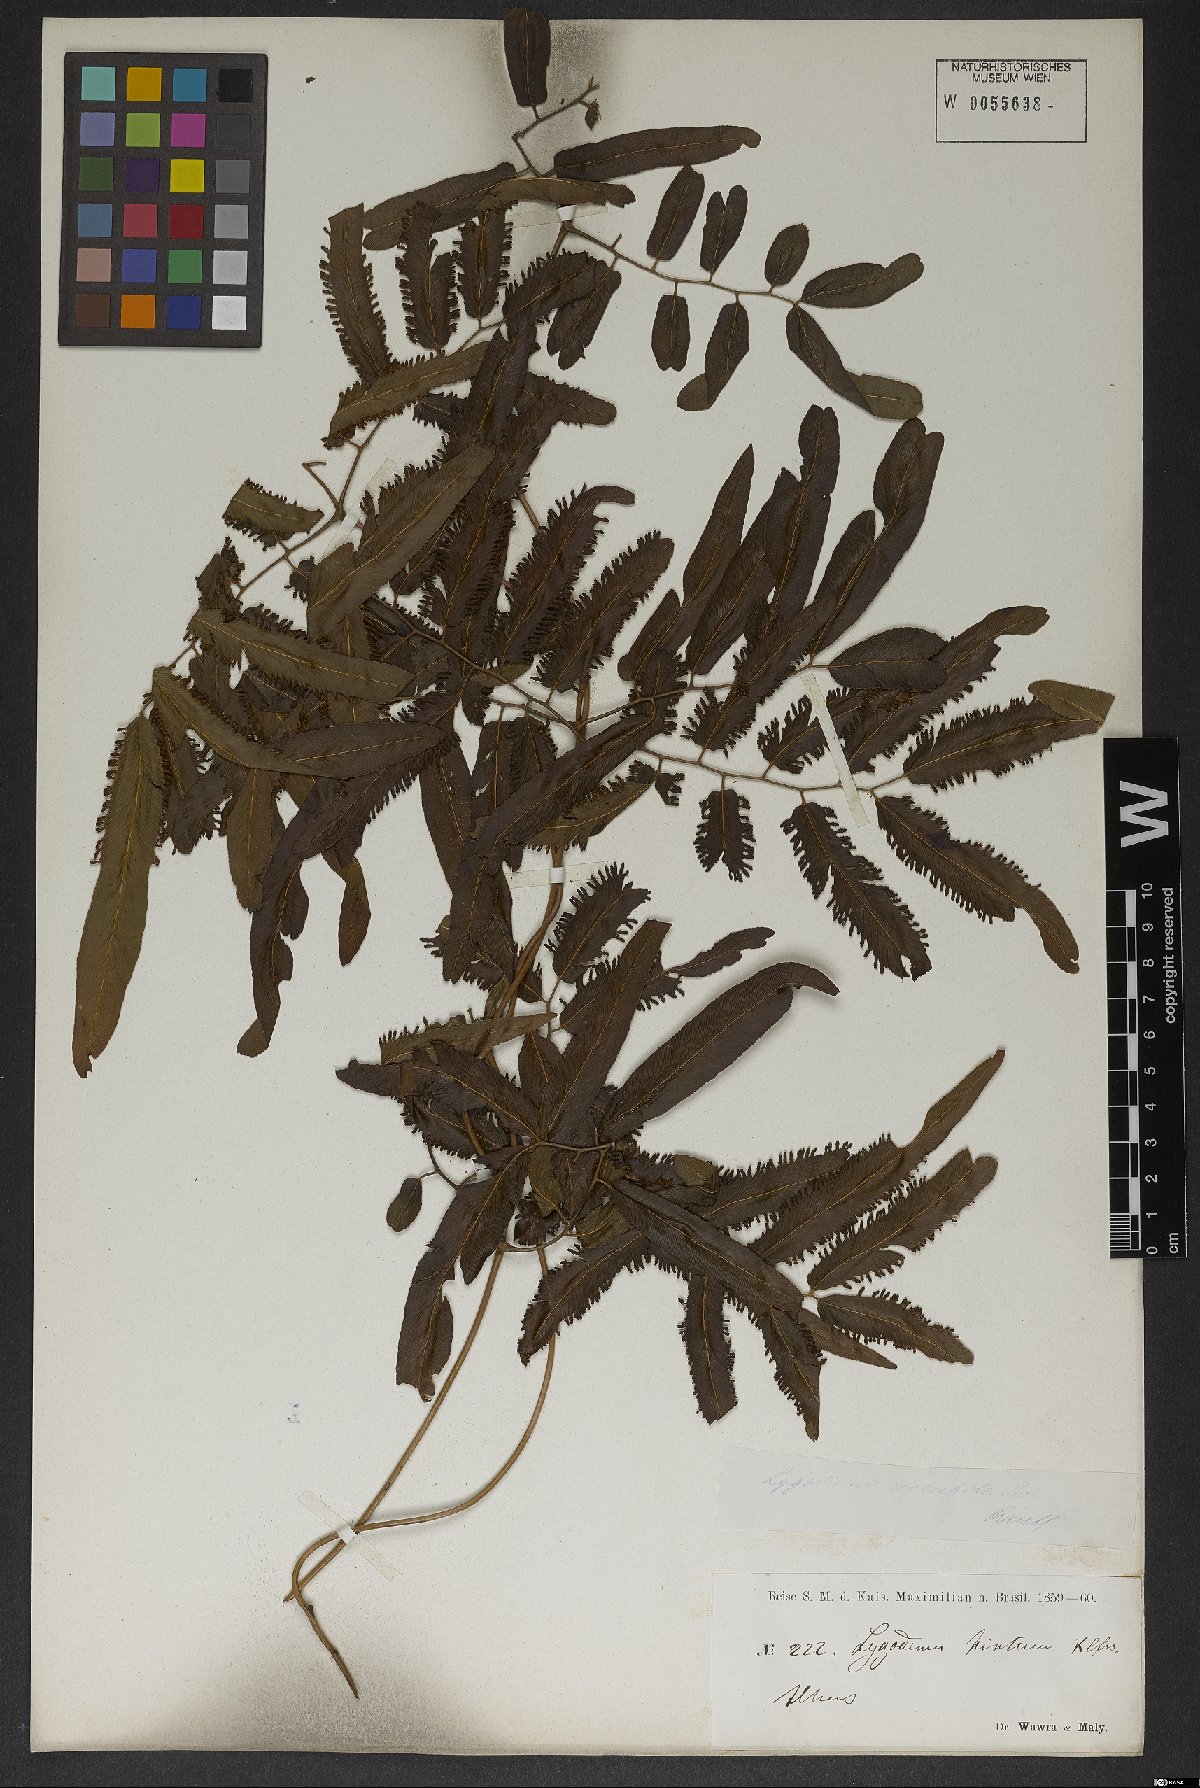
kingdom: Plantae
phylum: Tracheophyta
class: Polypodiopsida
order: Schizaeales
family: Lygodiaceae
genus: Lygodium
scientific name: Lygodium volubile
